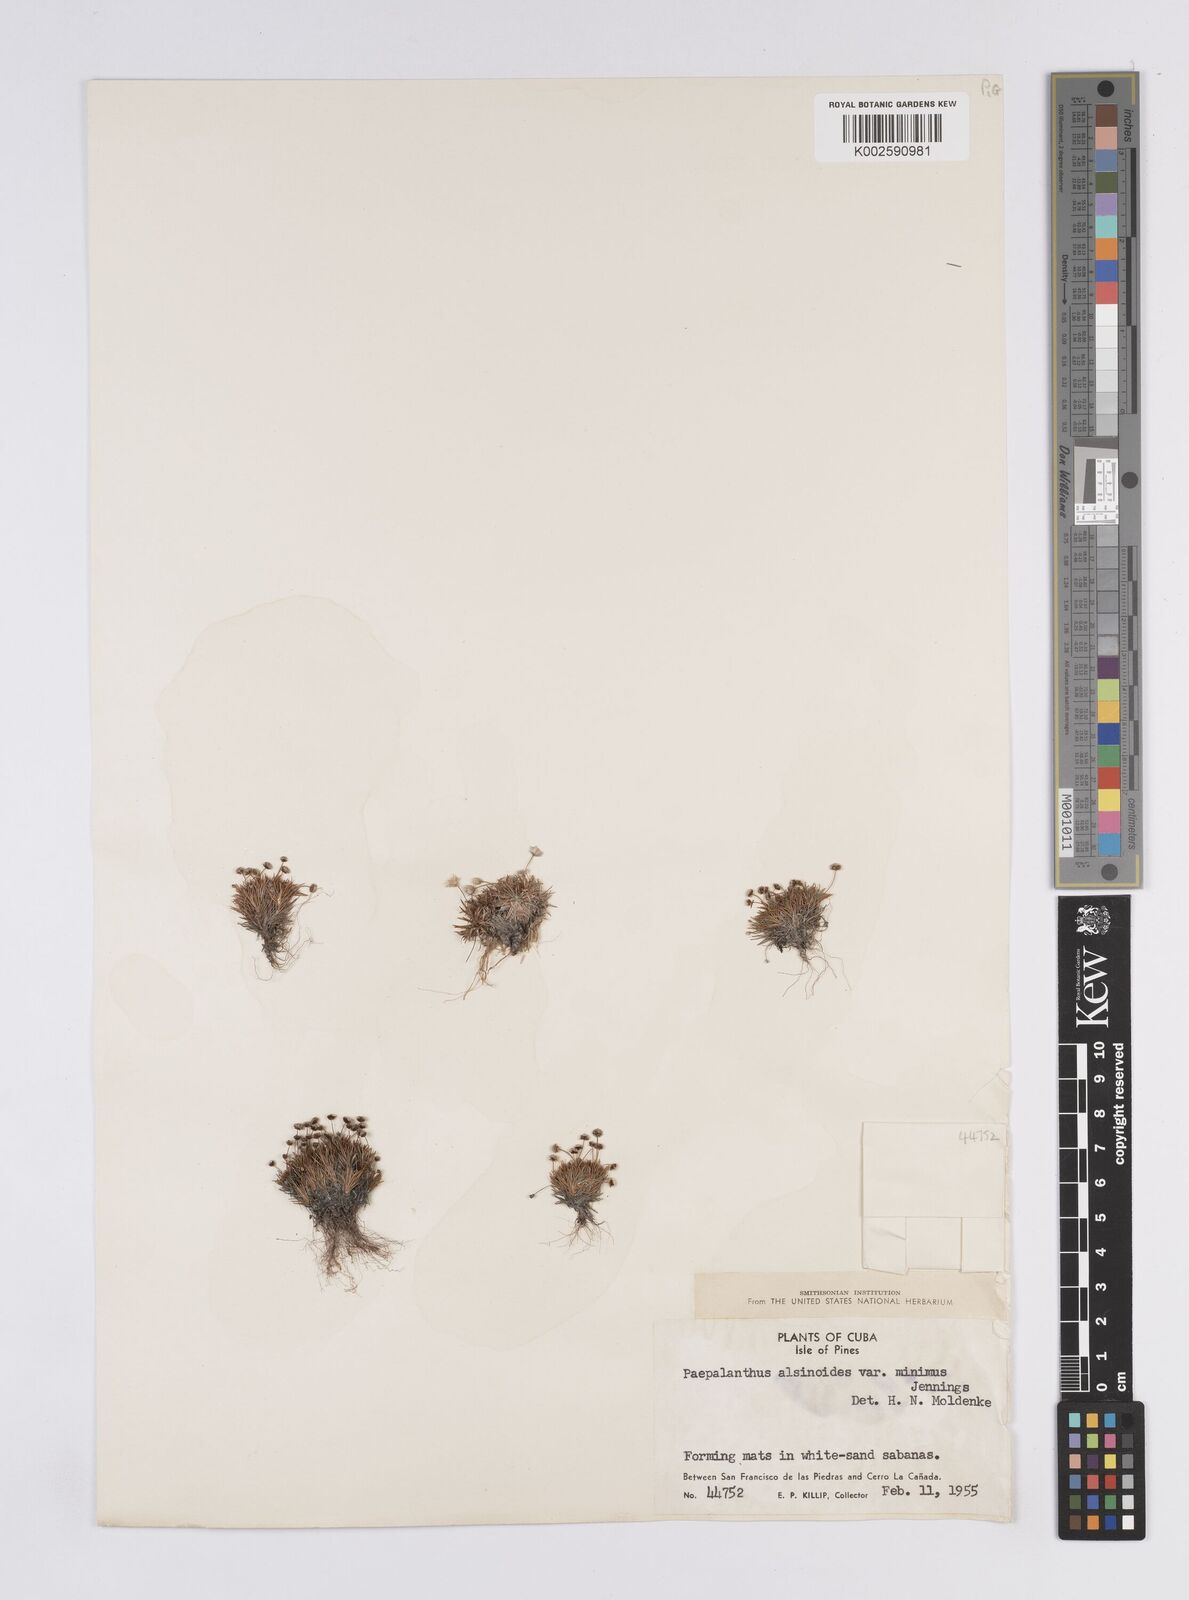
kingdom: Plantae
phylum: Tracheophyta
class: Liliopsida
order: Poales
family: Eriocaulaceae
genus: Paepalanthus
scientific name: Paepalanthus alsinoides
